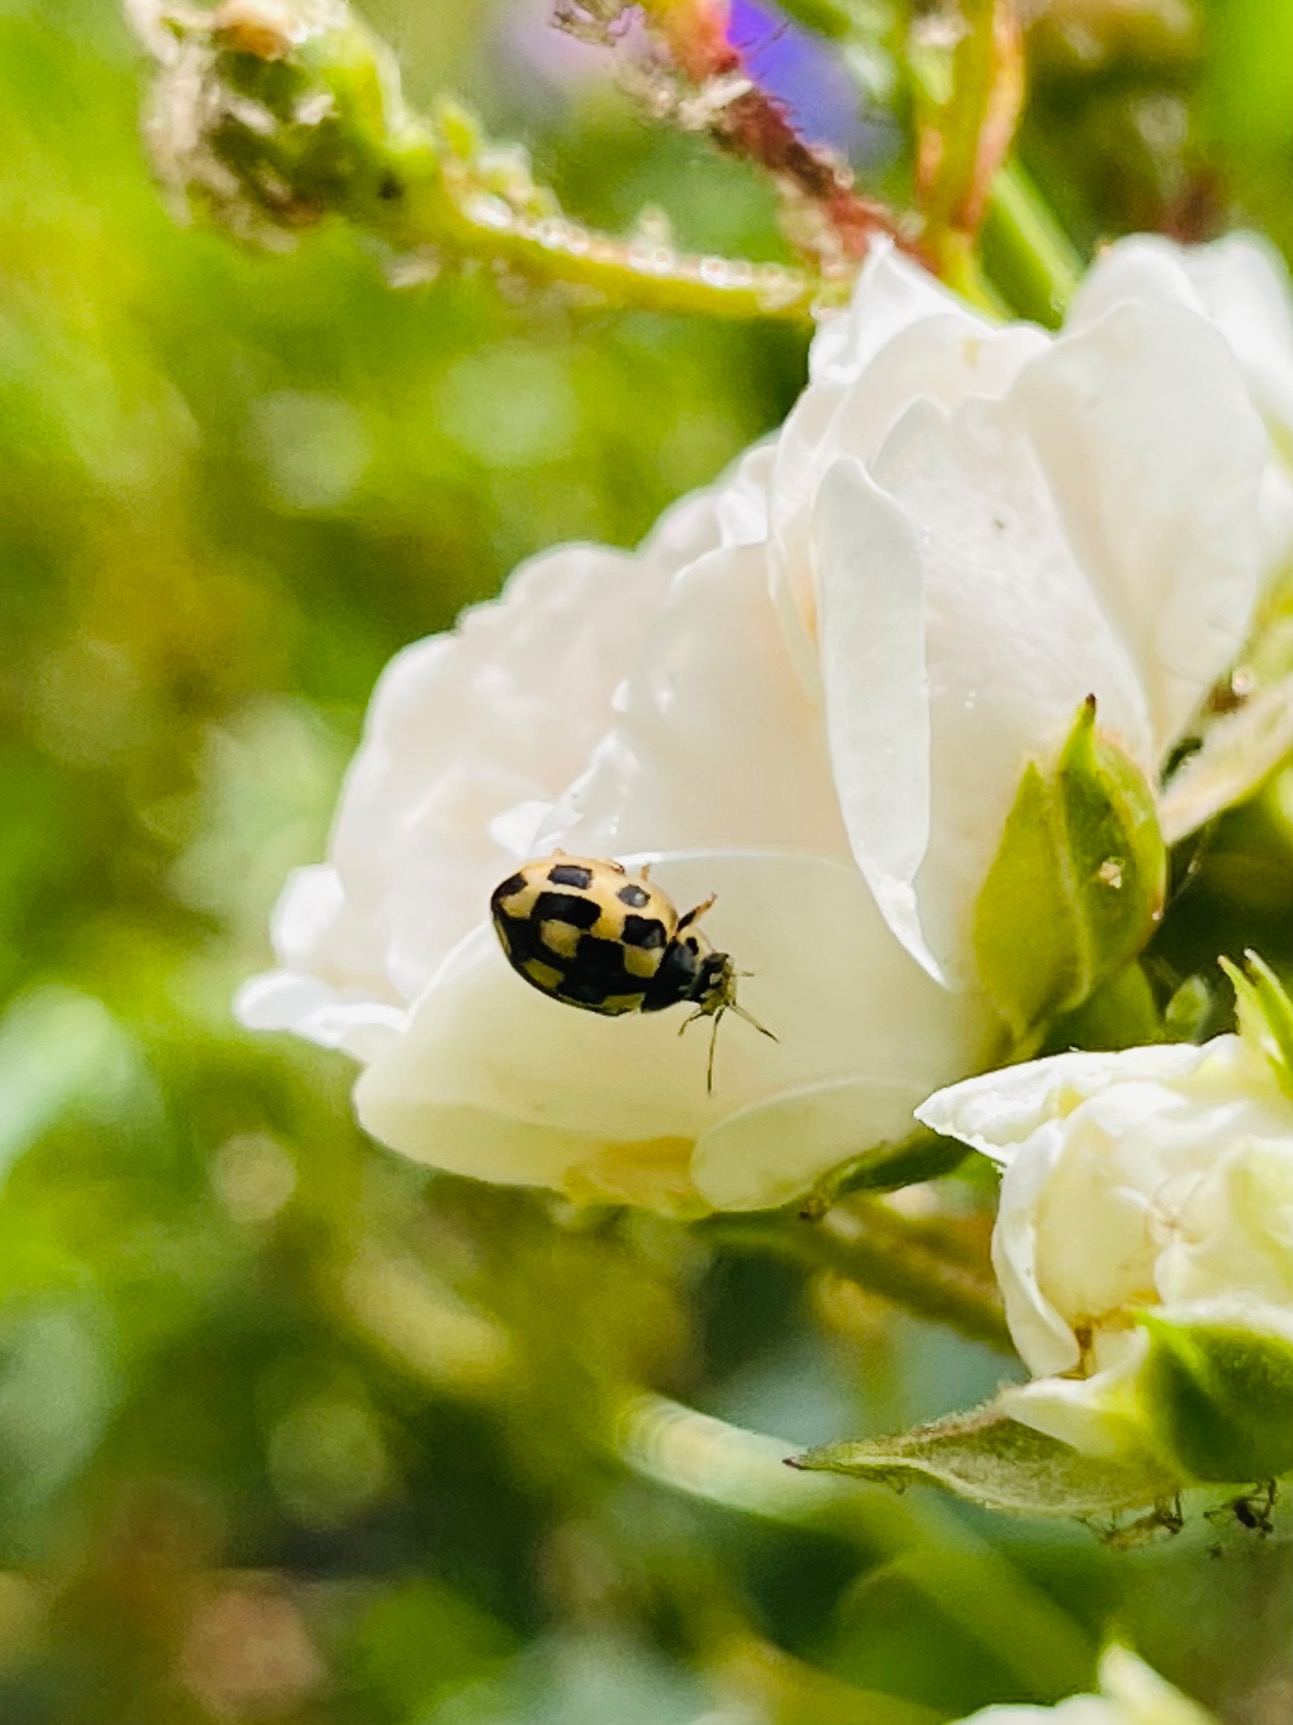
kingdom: Animalia
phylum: Arthropoda
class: Insecta
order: Coleoptera
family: Coccinellidae
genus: Propylaea
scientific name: Propylaea quatuordecimpunctata
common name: Skakbræt
